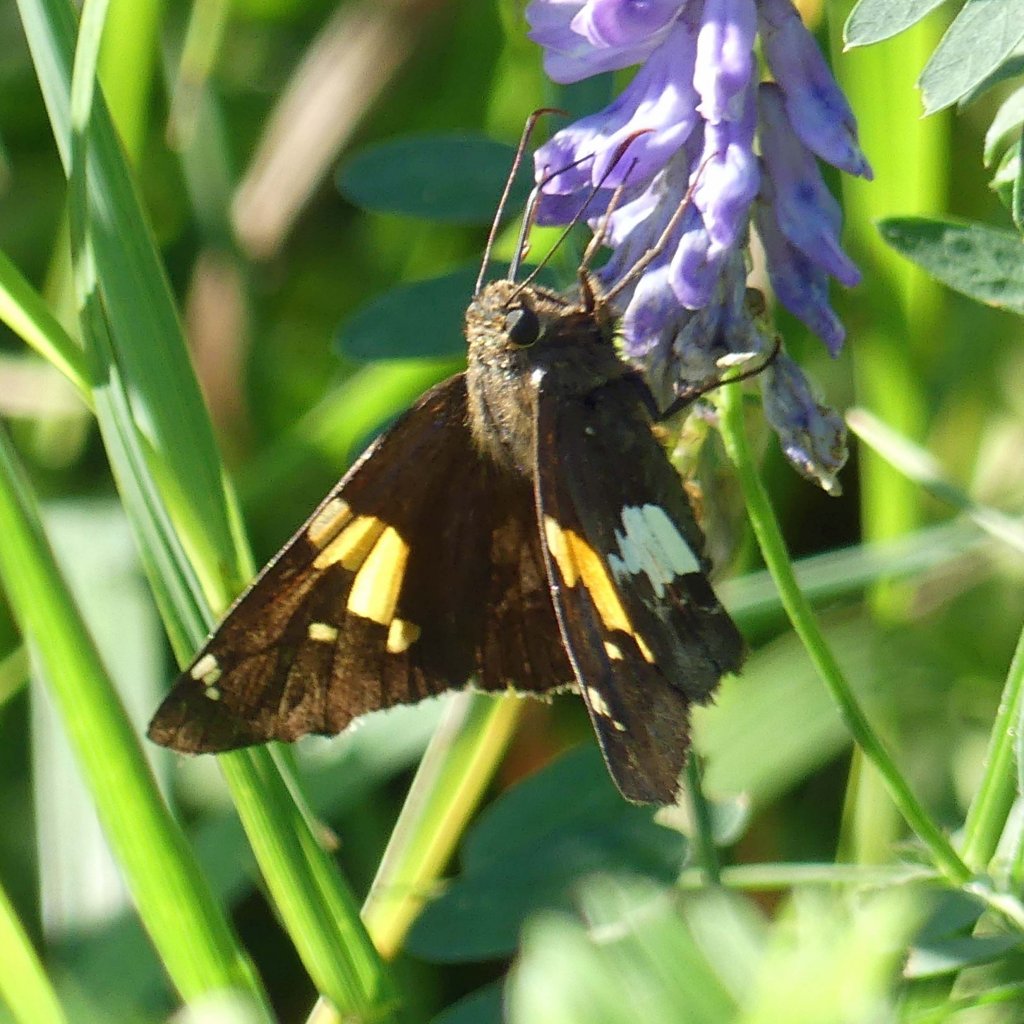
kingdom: Animalia
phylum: Arthropoda
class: Insecta
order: Lepidoptera
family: Hesperiidae
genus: Epargyreus
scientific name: Epargyreus clarus
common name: Silver-spotted Skipper
